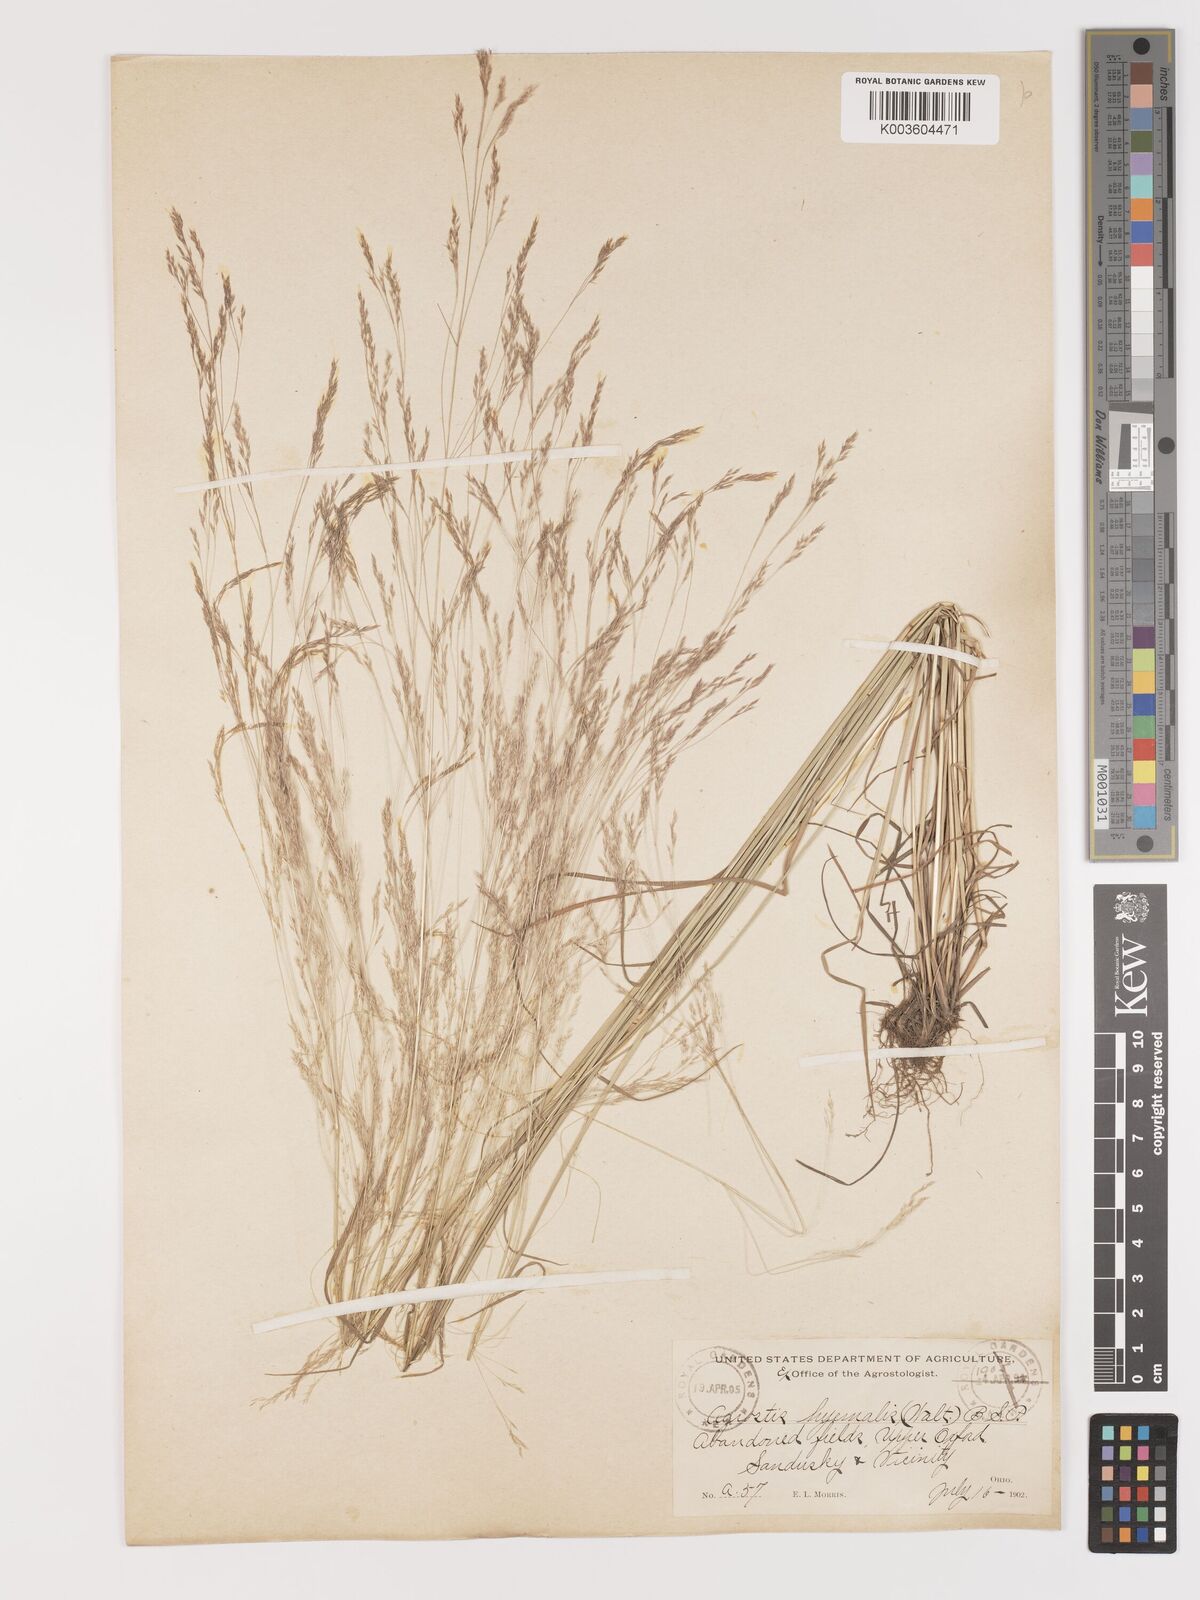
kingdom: Plantae
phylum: Tracheophyta
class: Liliopsida
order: Poales
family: Poaceae
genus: Agrostis
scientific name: Agrostis hyemalis
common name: Small bent
